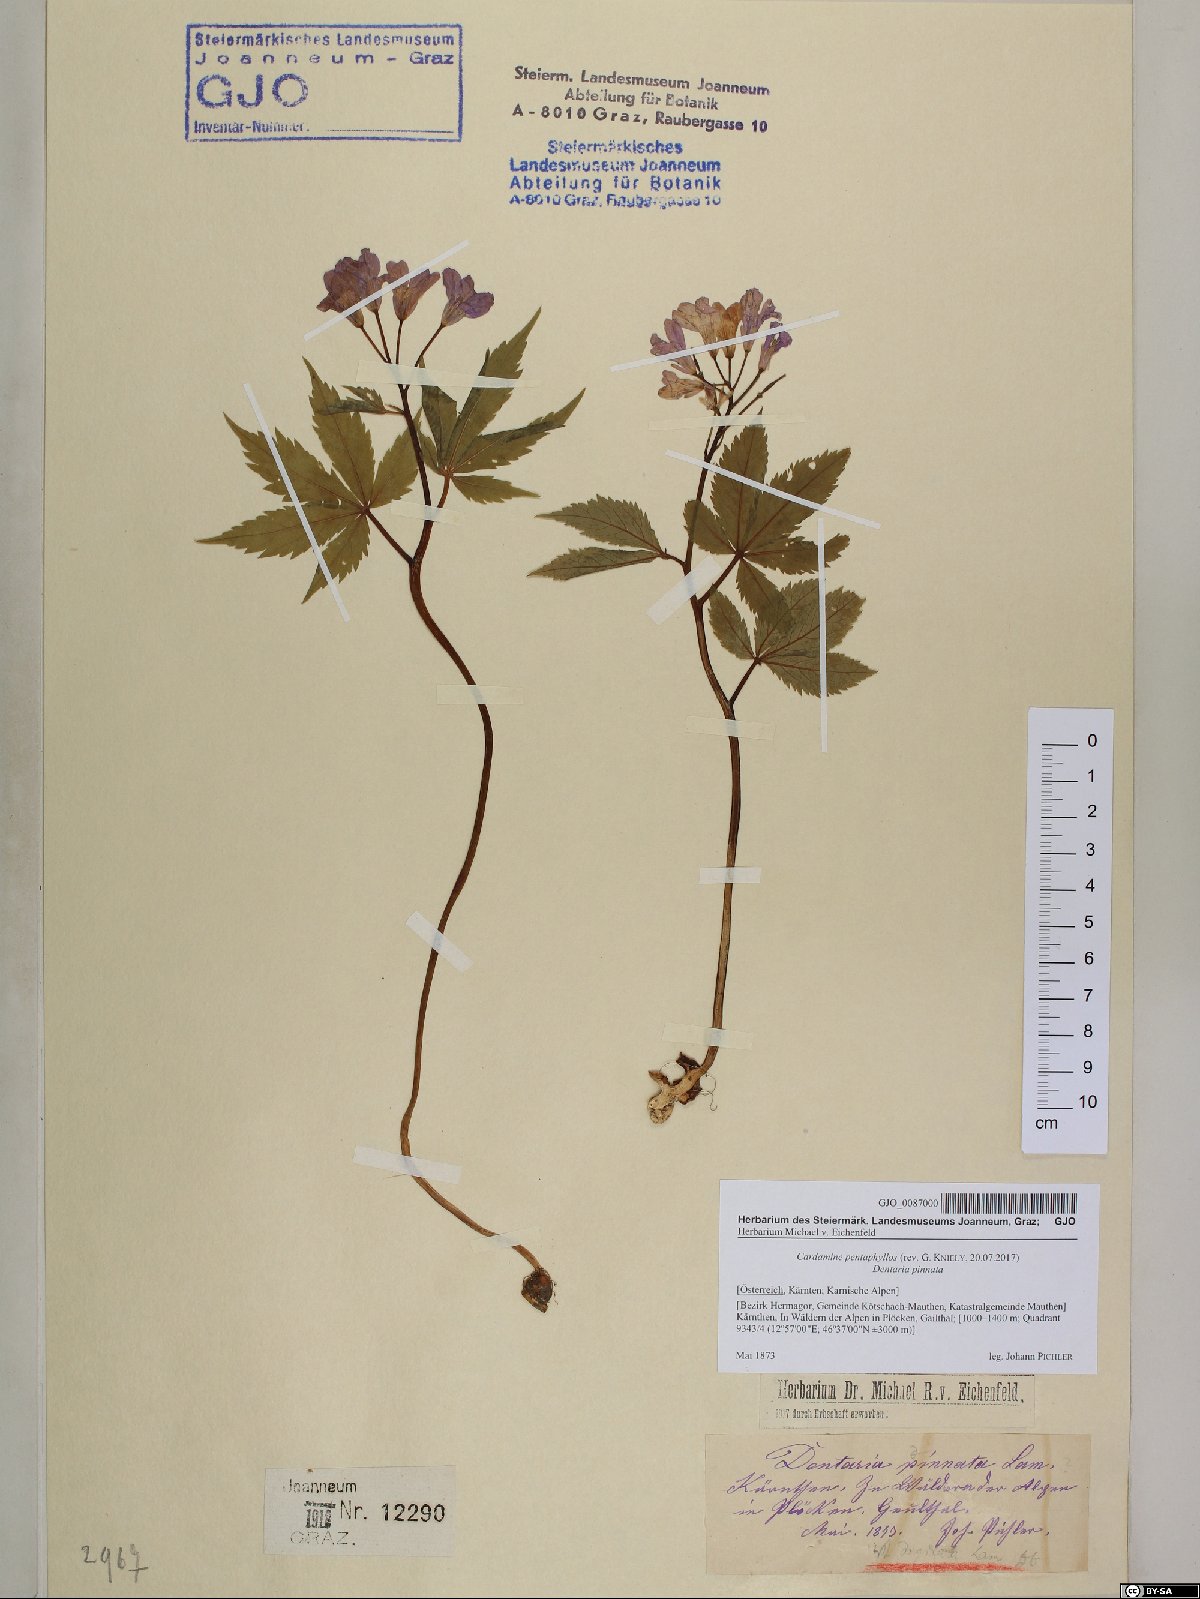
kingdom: Plantae
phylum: Tracheophyta
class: Magnoliopsida
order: Brassicales
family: Brassicaceae
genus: Cardamine
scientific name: Cardamine pentaphyllos
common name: Five-leaflet bitter-cress
